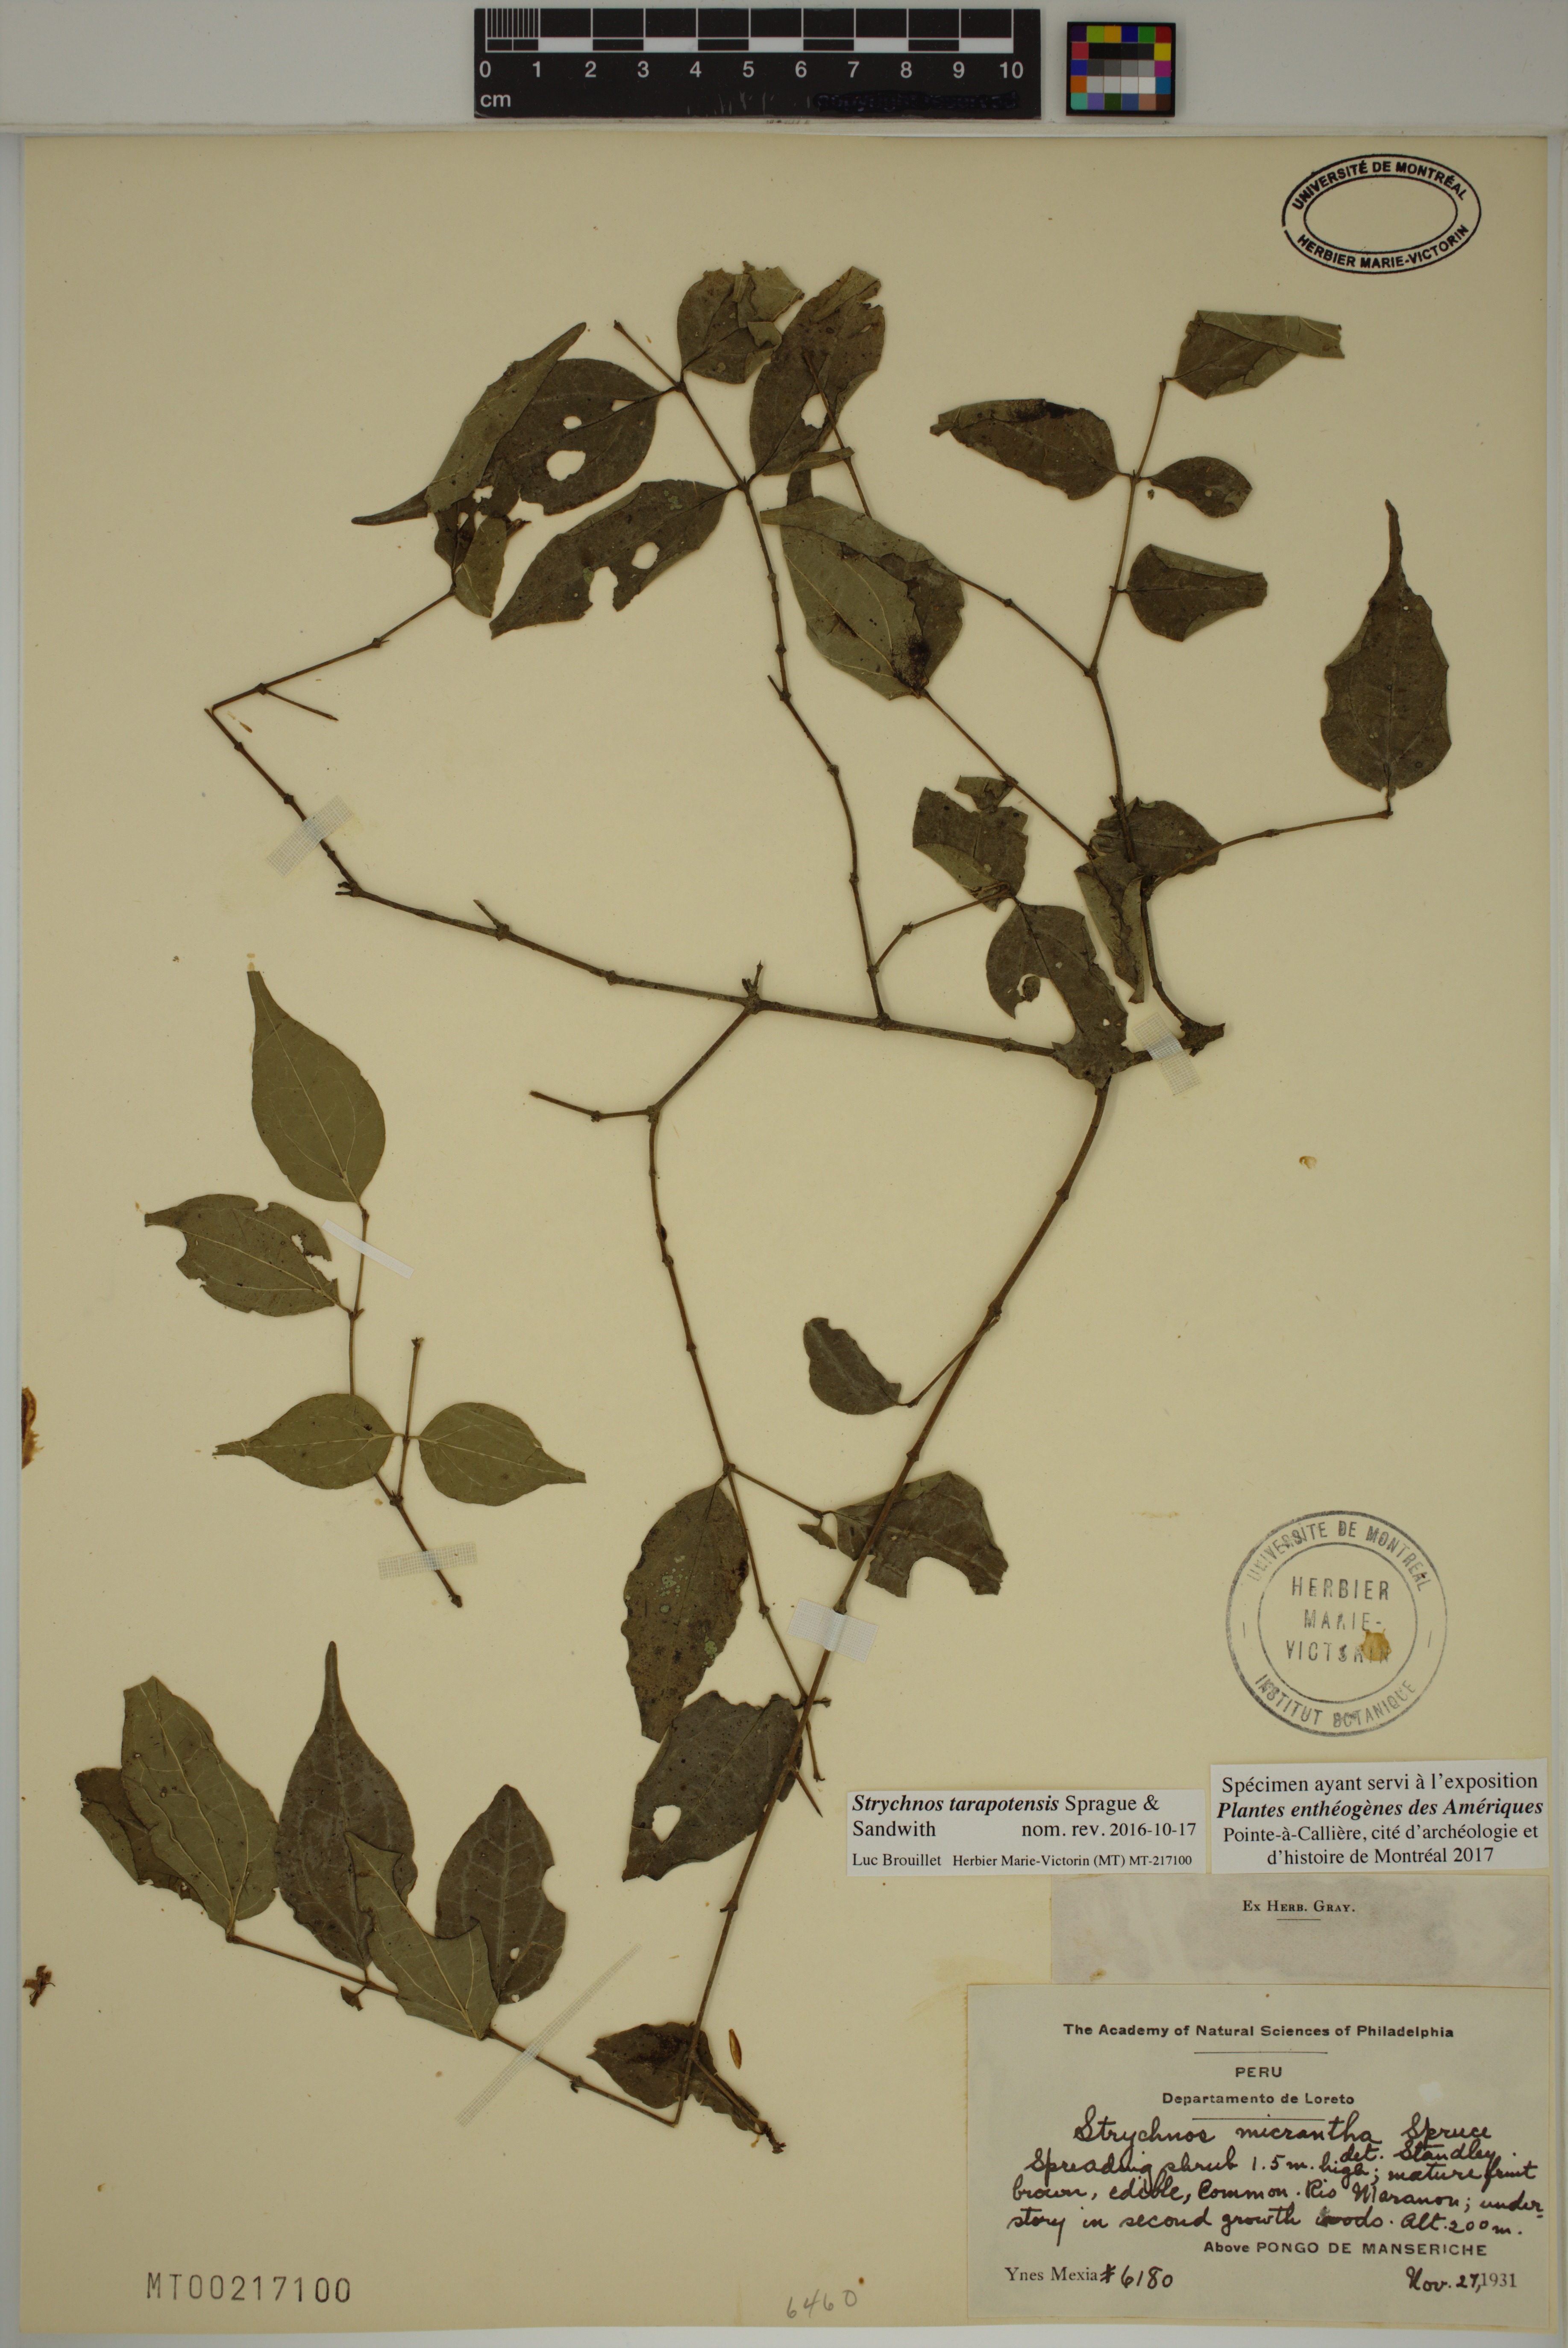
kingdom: Plantae
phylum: Tracheophyta
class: Magnoliopsida
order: Gentianales
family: Loganiaceae
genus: Strychnos
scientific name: Strychnos tarapotensis
